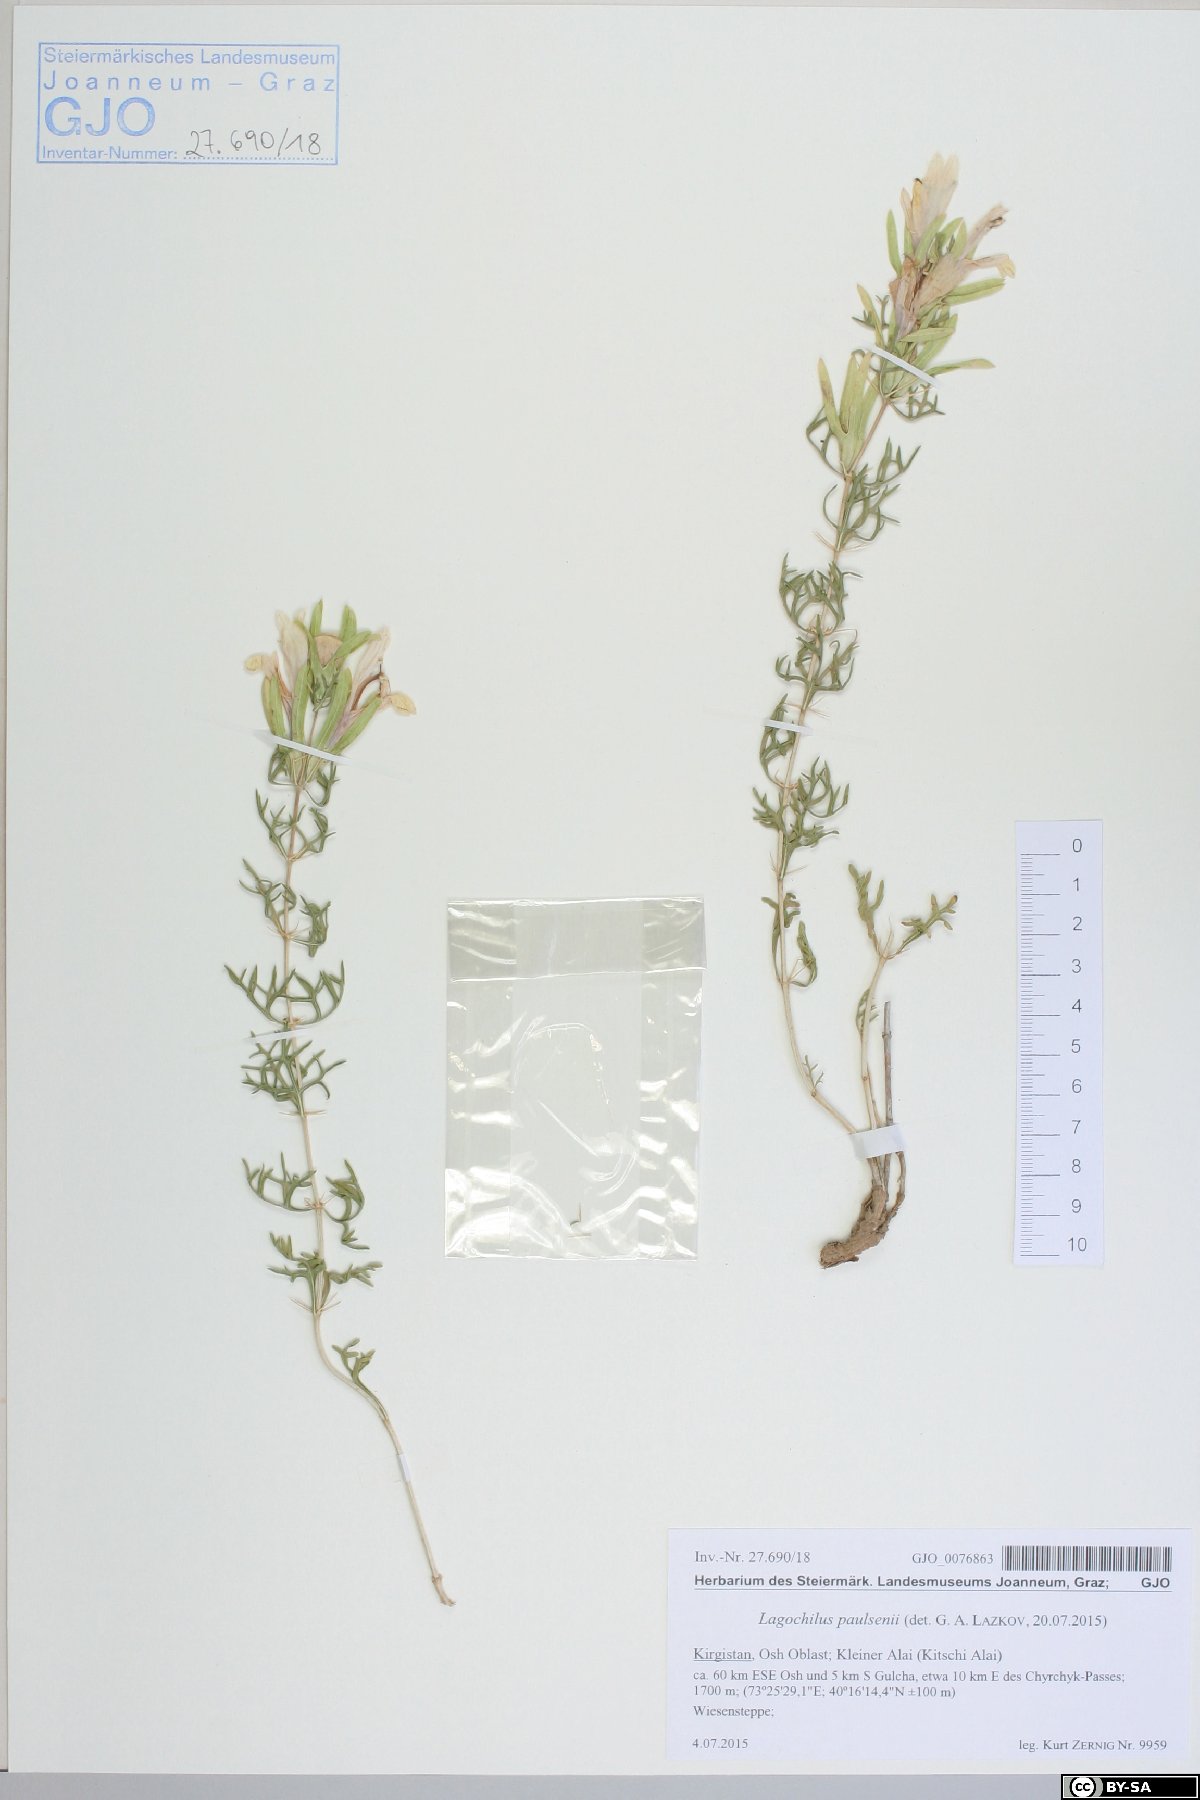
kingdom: Plantae
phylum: Tracheophyta
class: Magnoliopsida
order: Lamiales
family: Lamiaceae
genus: Lagochilus
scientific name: Lagochilus paulsenii
